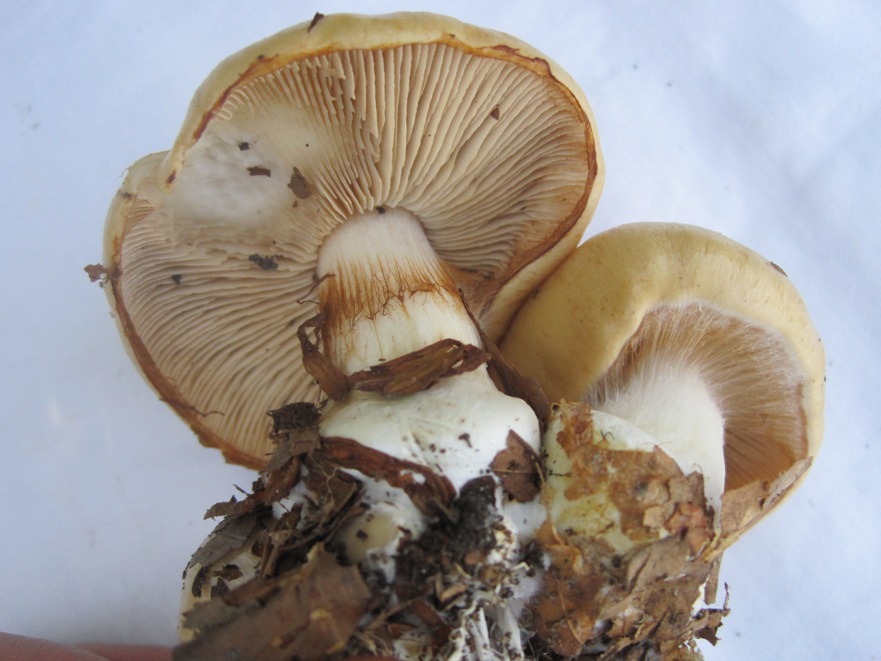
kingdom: Fungi
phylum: Basidiomycota
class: Agaricomycetes
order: Agaricales
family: Cortinariaceae
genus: Thaxterogaster
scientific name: Thaxterogaster talus
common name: knogle-slørhat
